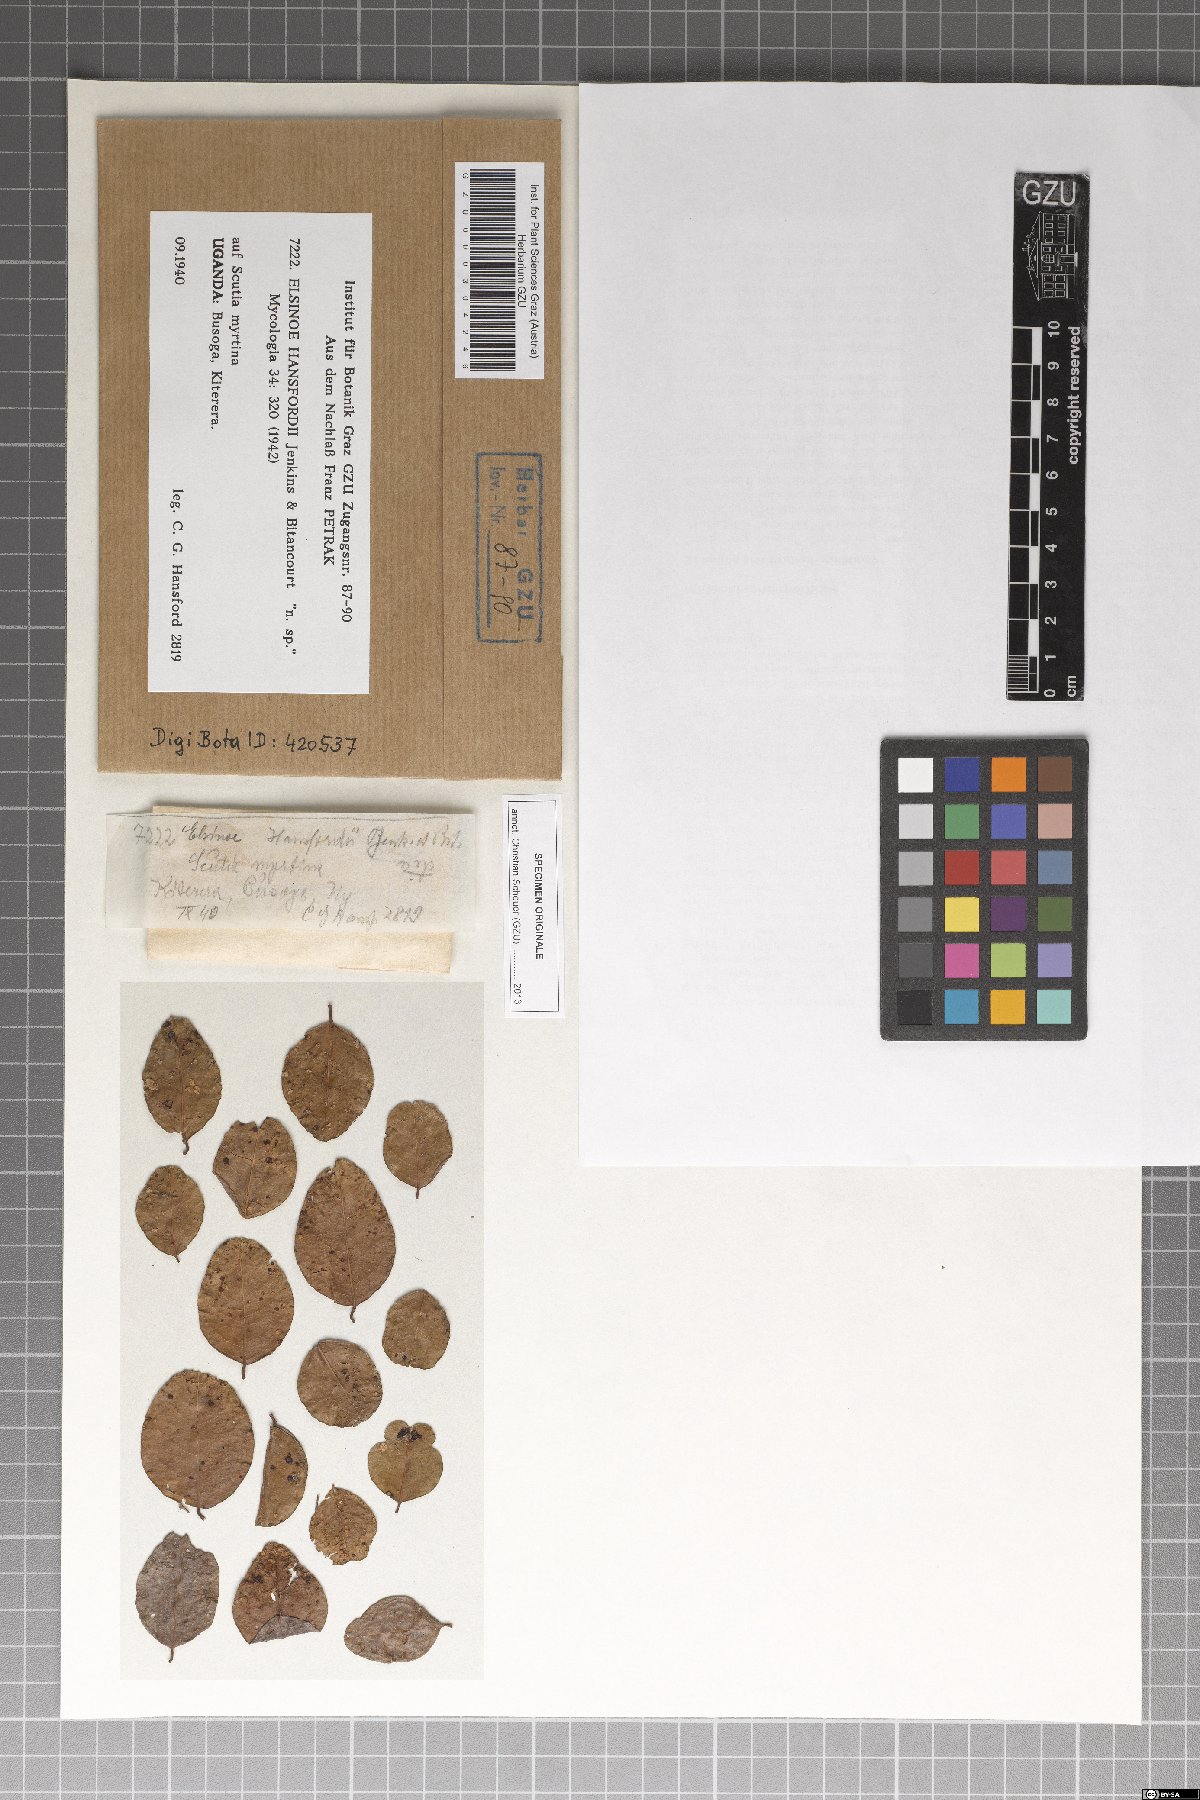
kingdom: Fungi
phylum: Ascomycota
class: Dothideomycetes
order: Myriangiales
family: Elsinoaceae
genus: Elsinoe
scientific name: Elsinoe hansfordii
